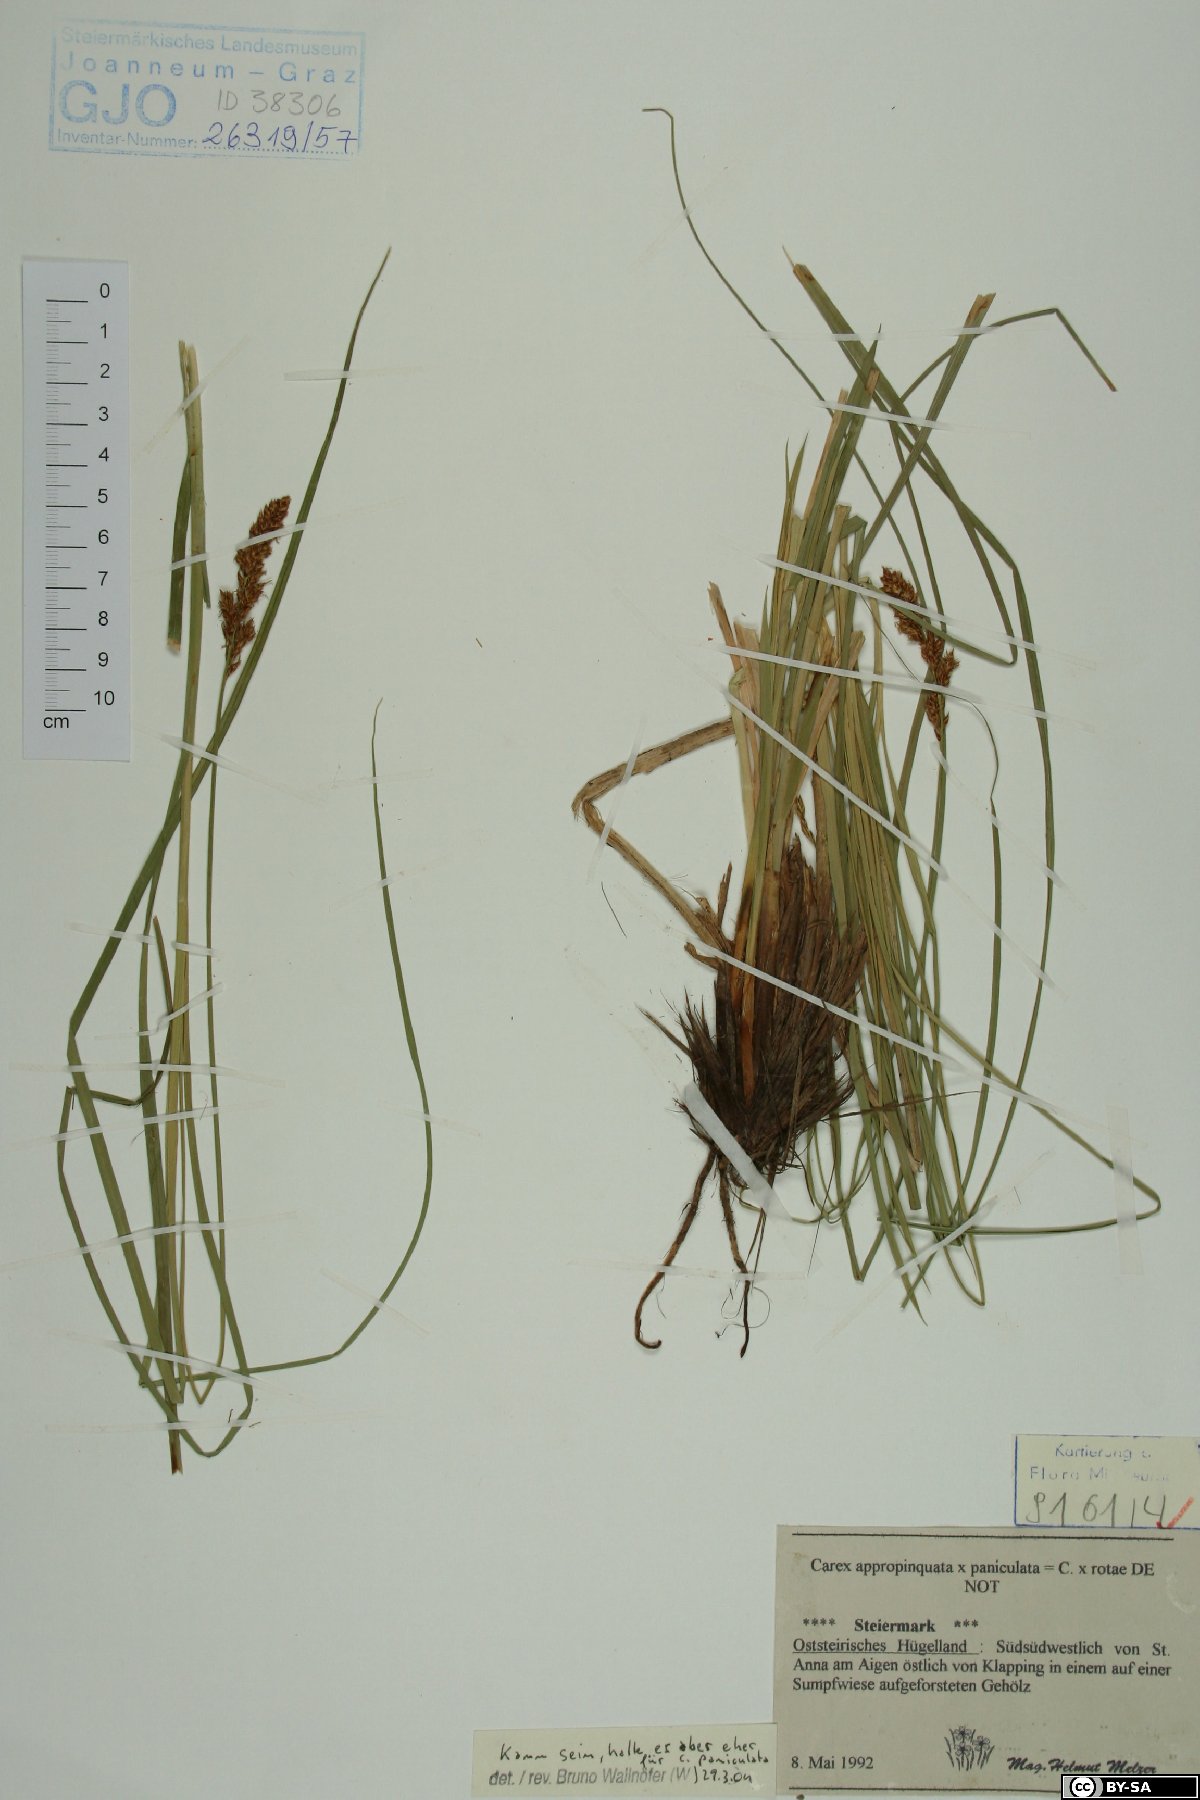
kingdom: Plantae
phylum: Tracheophyta
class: Liliopsida
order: Poales
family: Cyperaceae
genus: Carex
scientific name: Carex paniculata
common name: Greater tussock-sedge
